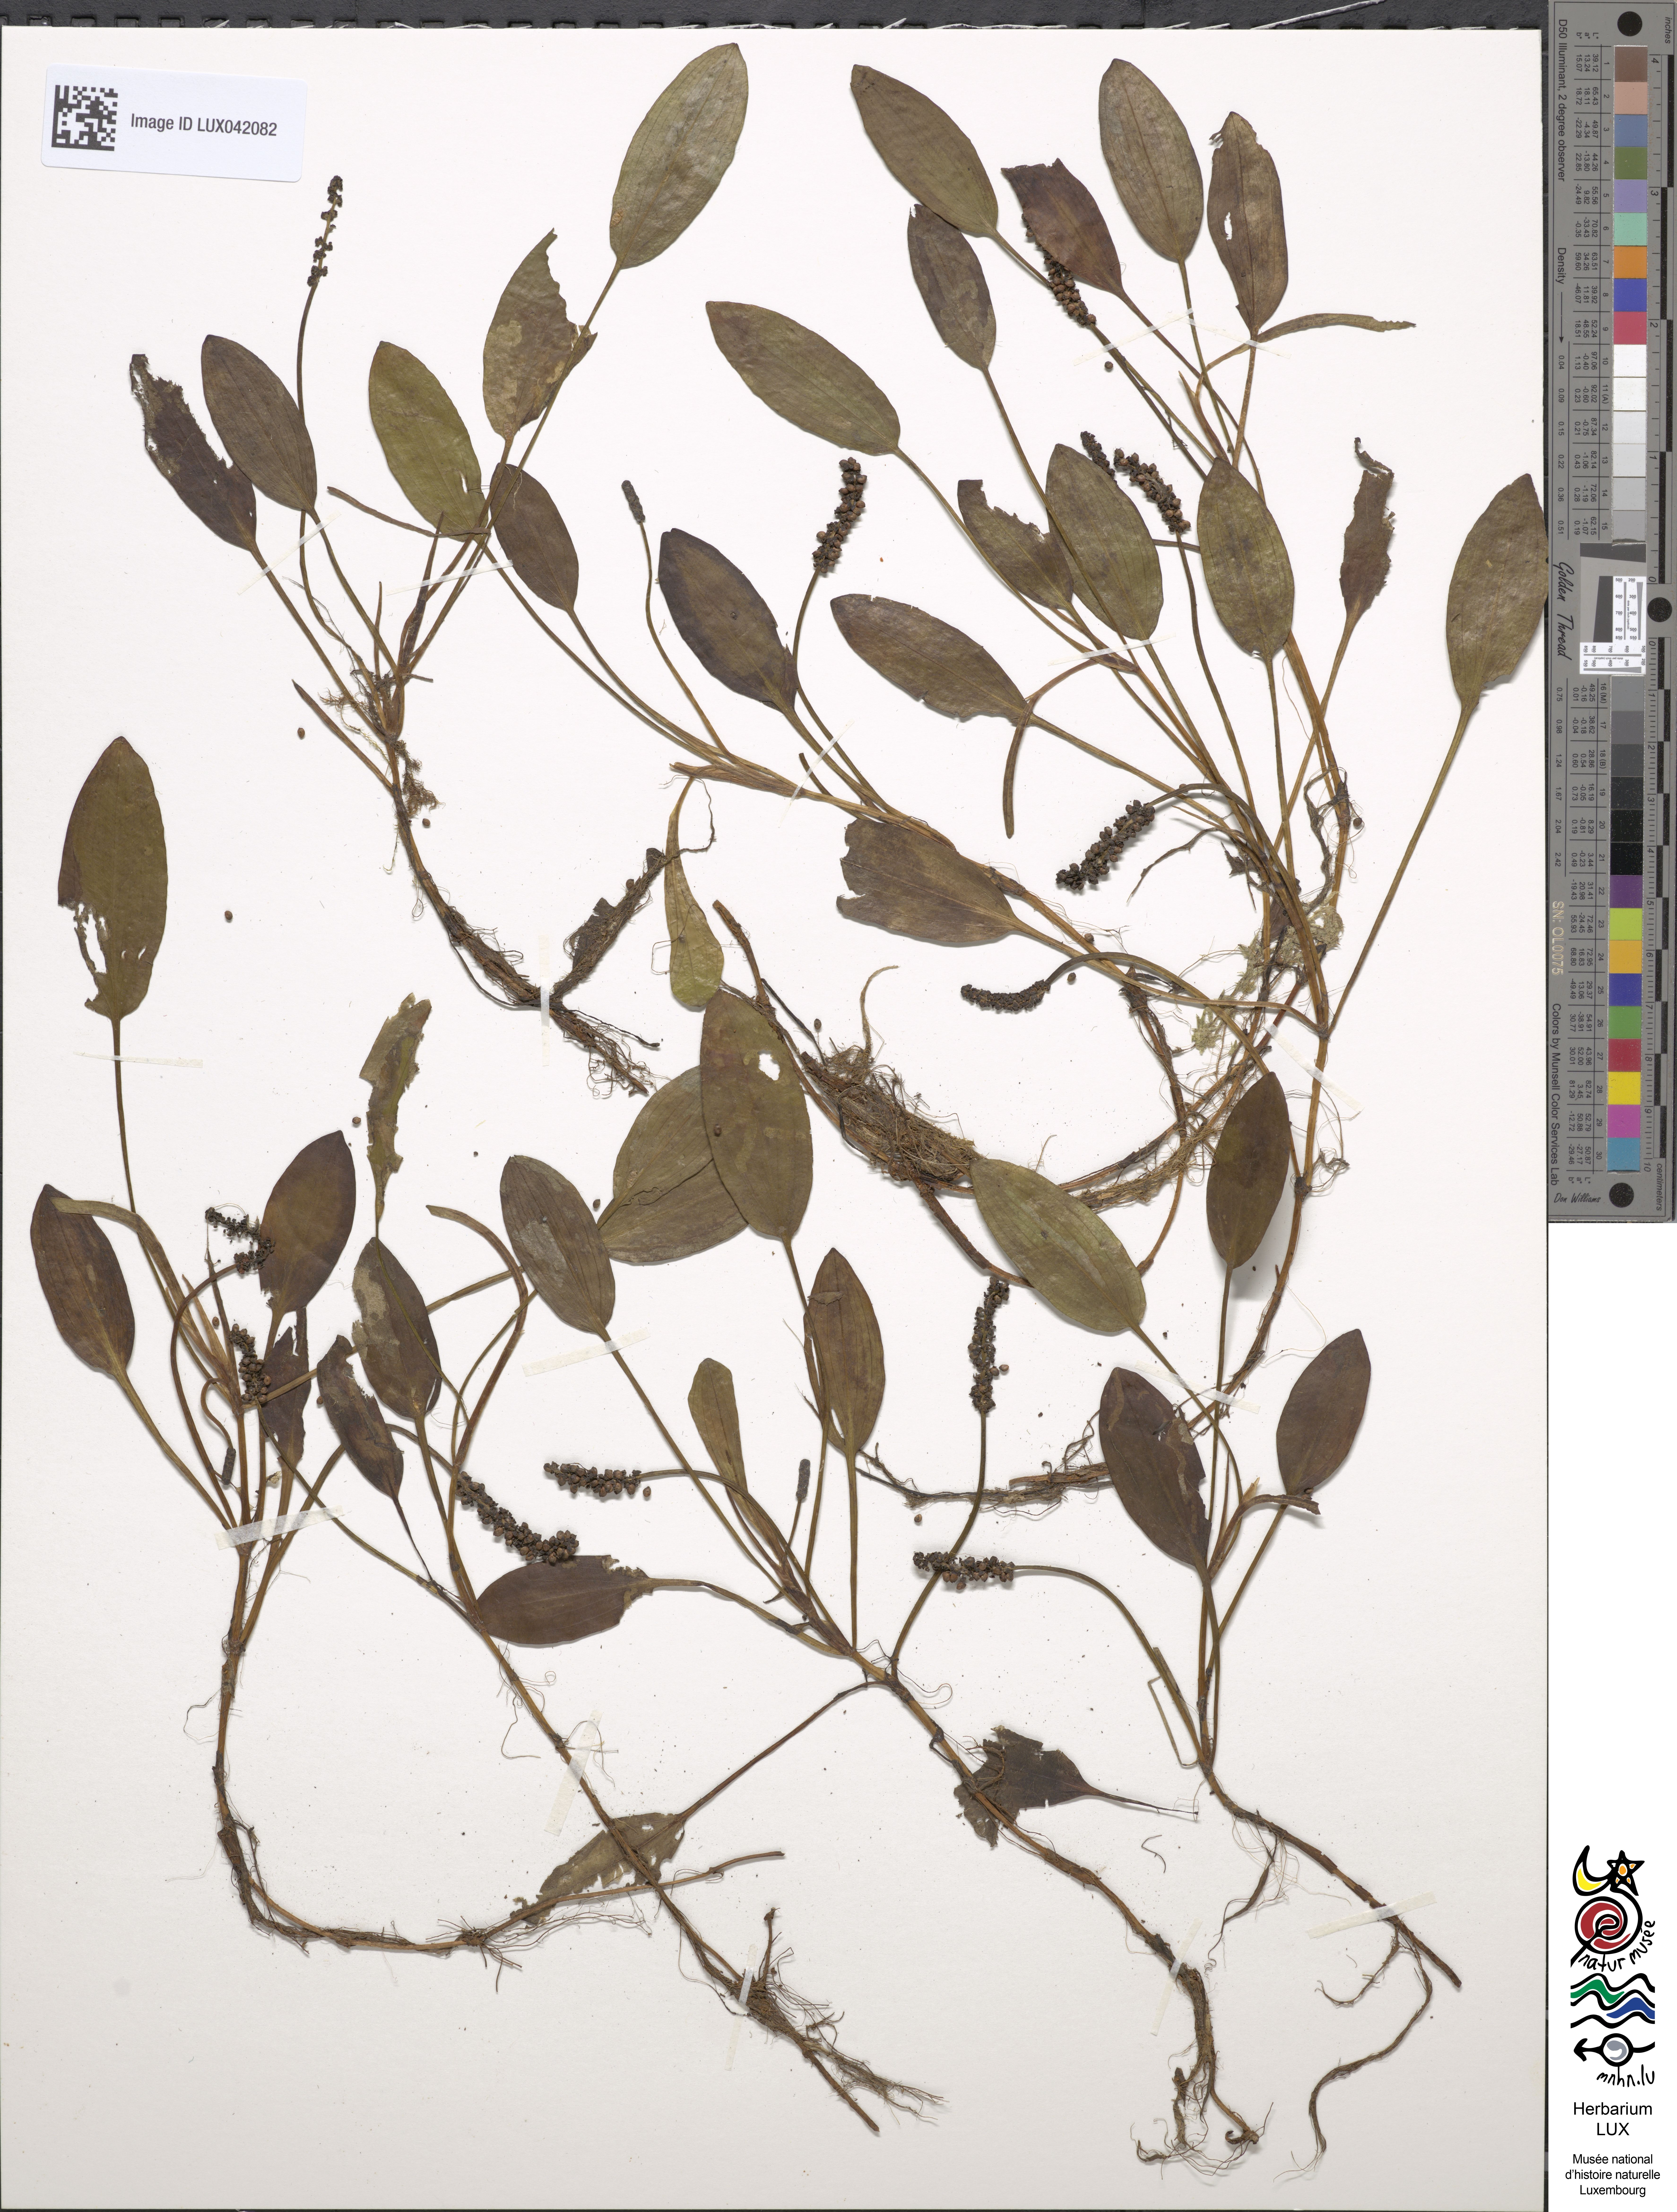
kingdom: Plantae
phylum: Tracheophyta
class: Liliopsida
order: Alismatales
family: Potamogetonaceae
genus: Potamogeton
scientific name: Potamogeton polygonifolius
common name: Bog pondweed
